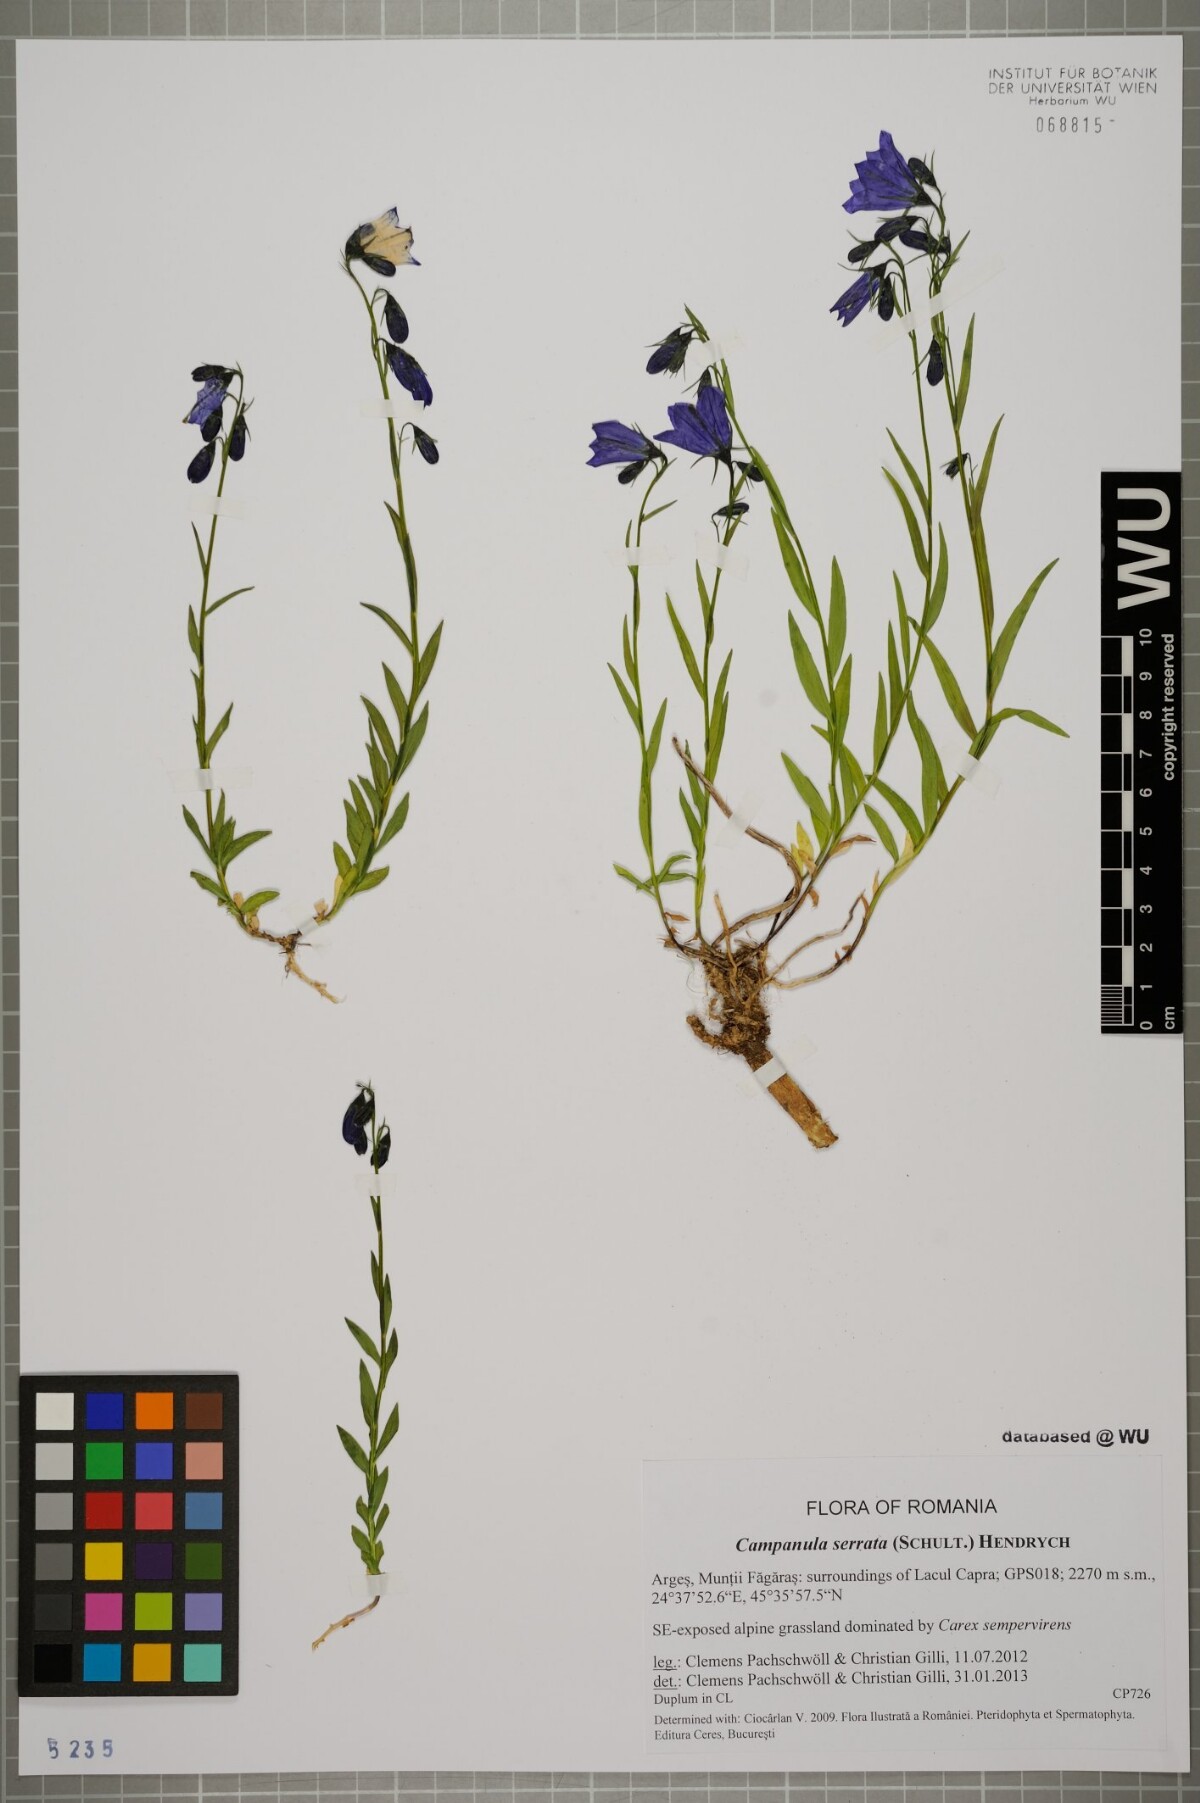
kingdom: Plantae
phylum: Tracheophyta
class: Magnoliopsida
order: Asterales
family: Campanulaceae
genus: Campanula
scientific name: Campanula serrata
